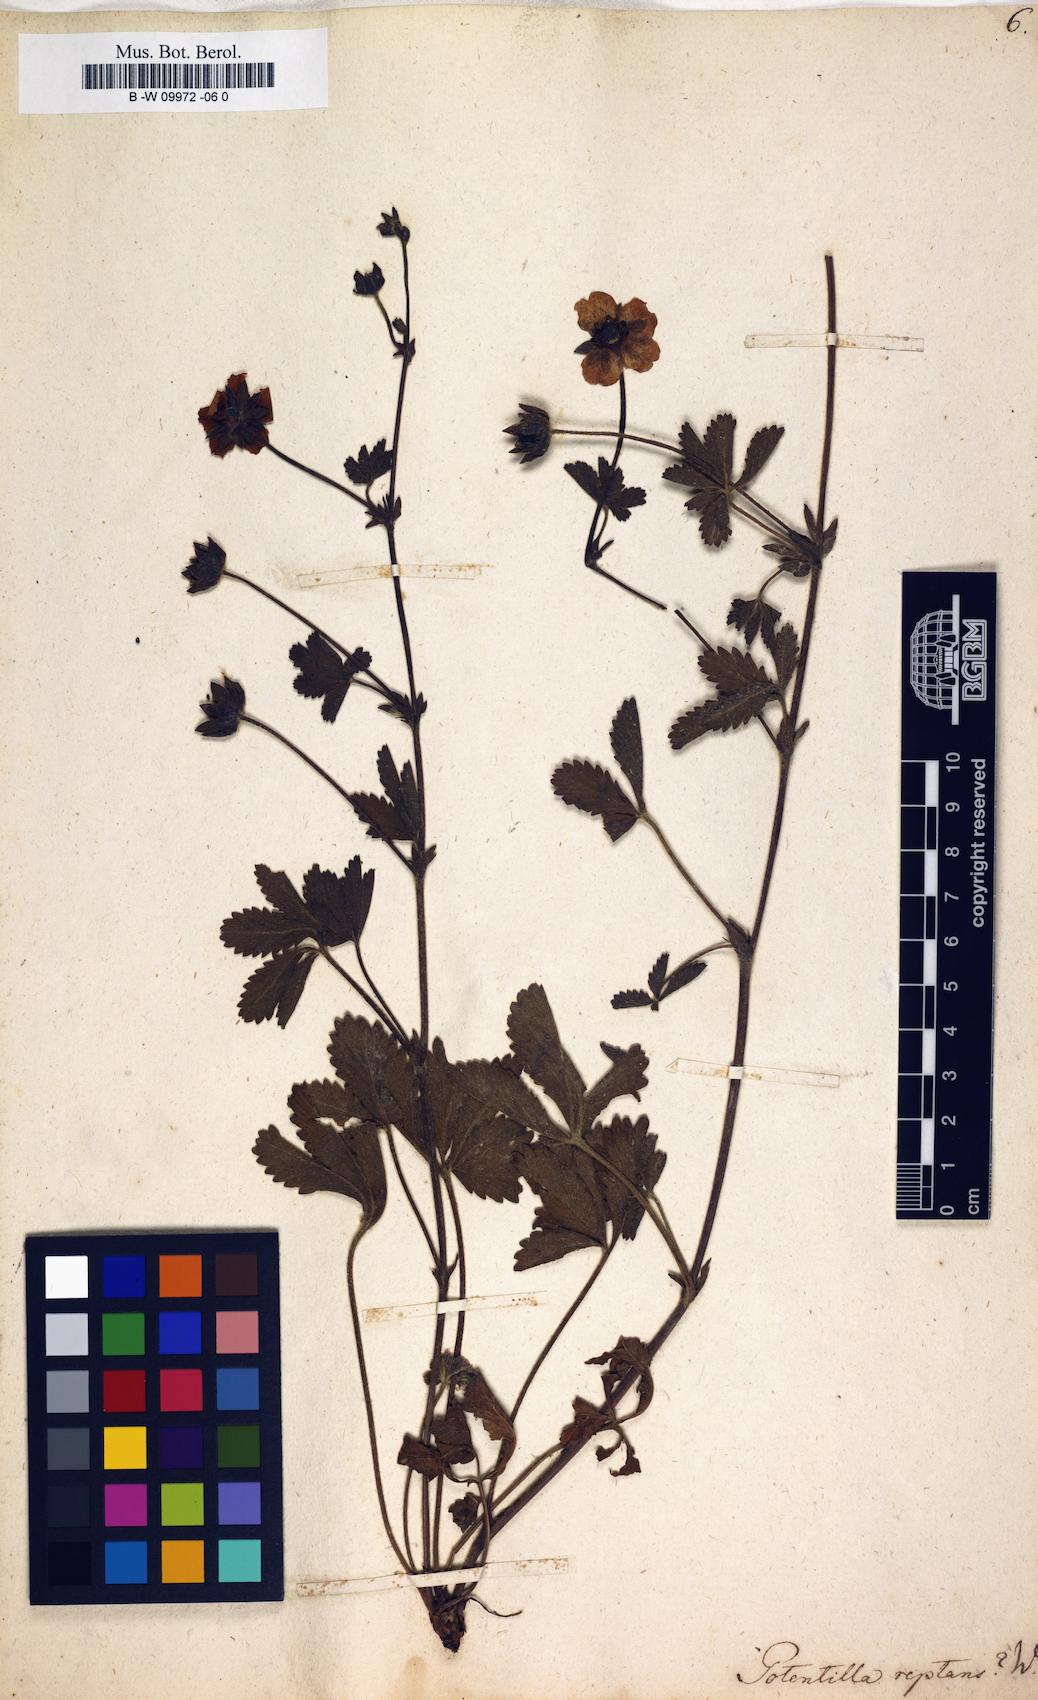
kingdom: Plantae
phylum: Tracheophyta
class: Magnoliopsida
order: Rosales
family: Rosaceae
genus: Potentilla
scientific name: Potentilla reptans
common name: Creeping cinquefoil
